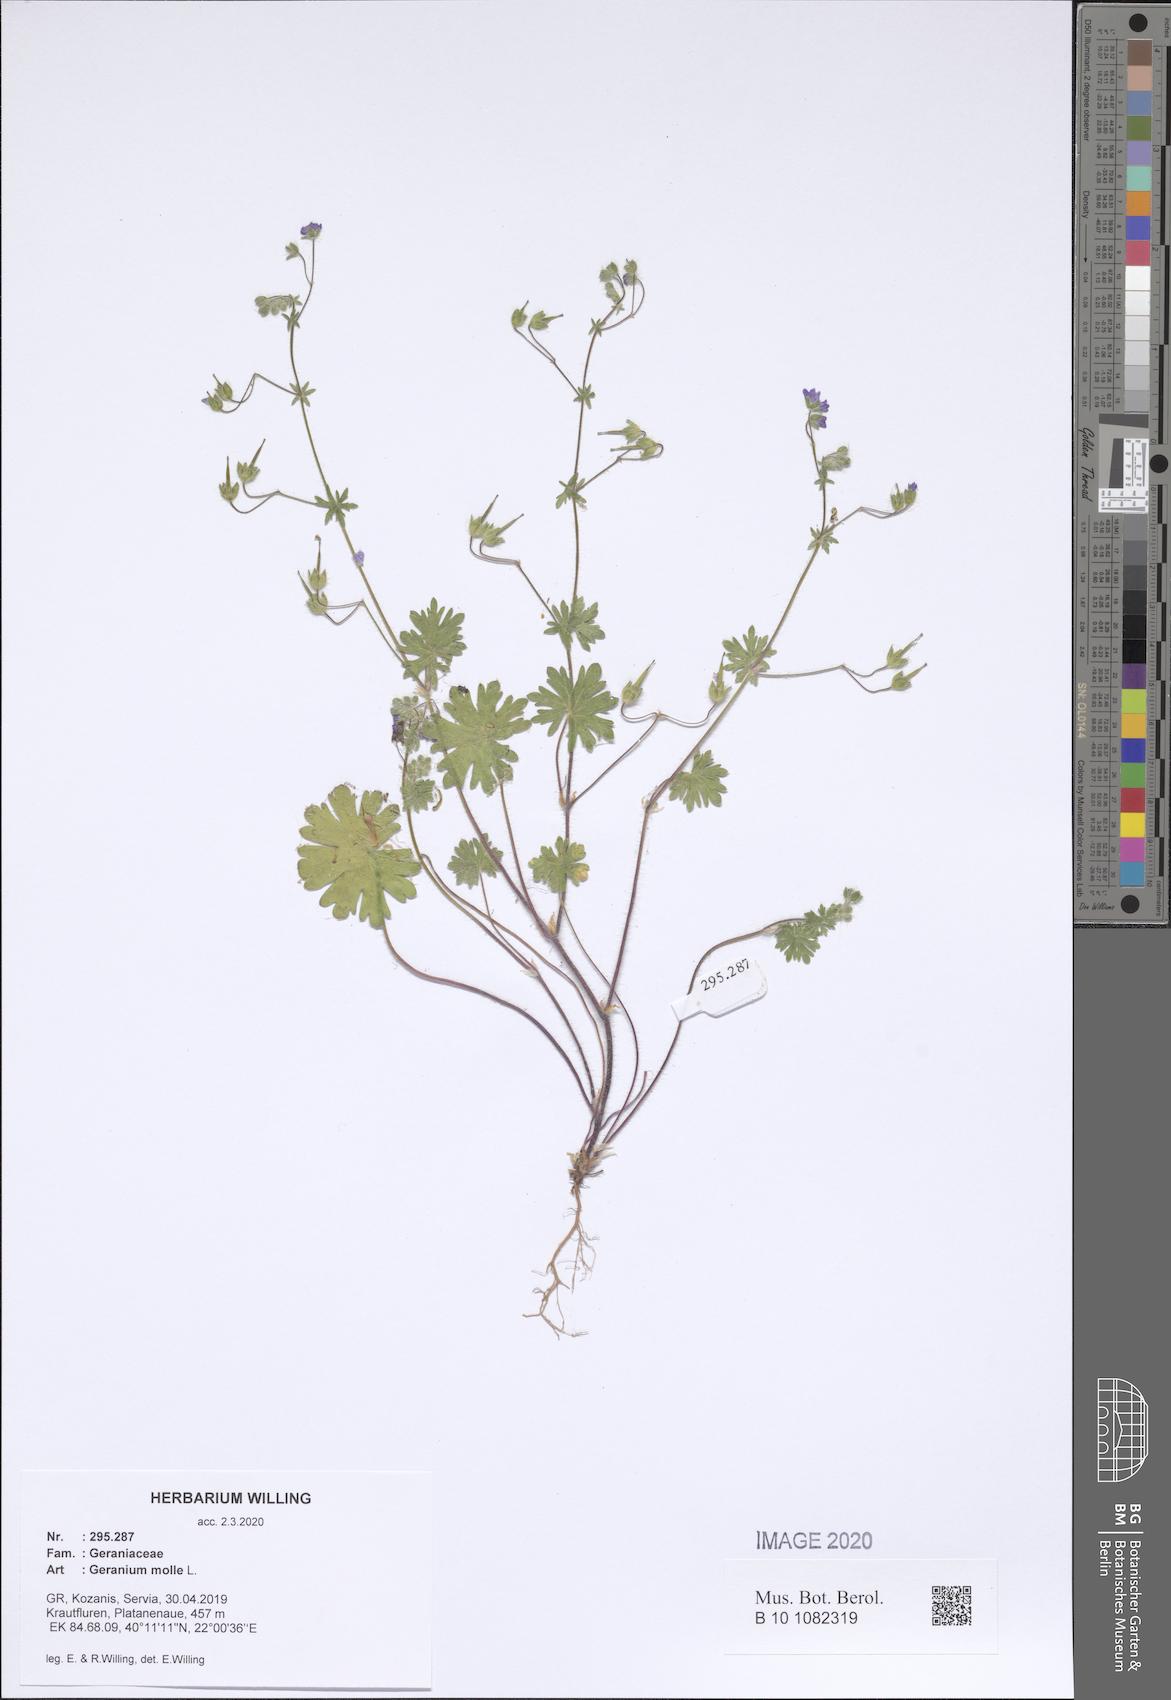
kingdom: Plantae
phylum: Tracheophyta
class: Magnoliopsida
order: Geraniales
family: Geraniaceae
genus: Geranium
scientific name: Geranium molle
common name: Dove's-foot crane's-bill
